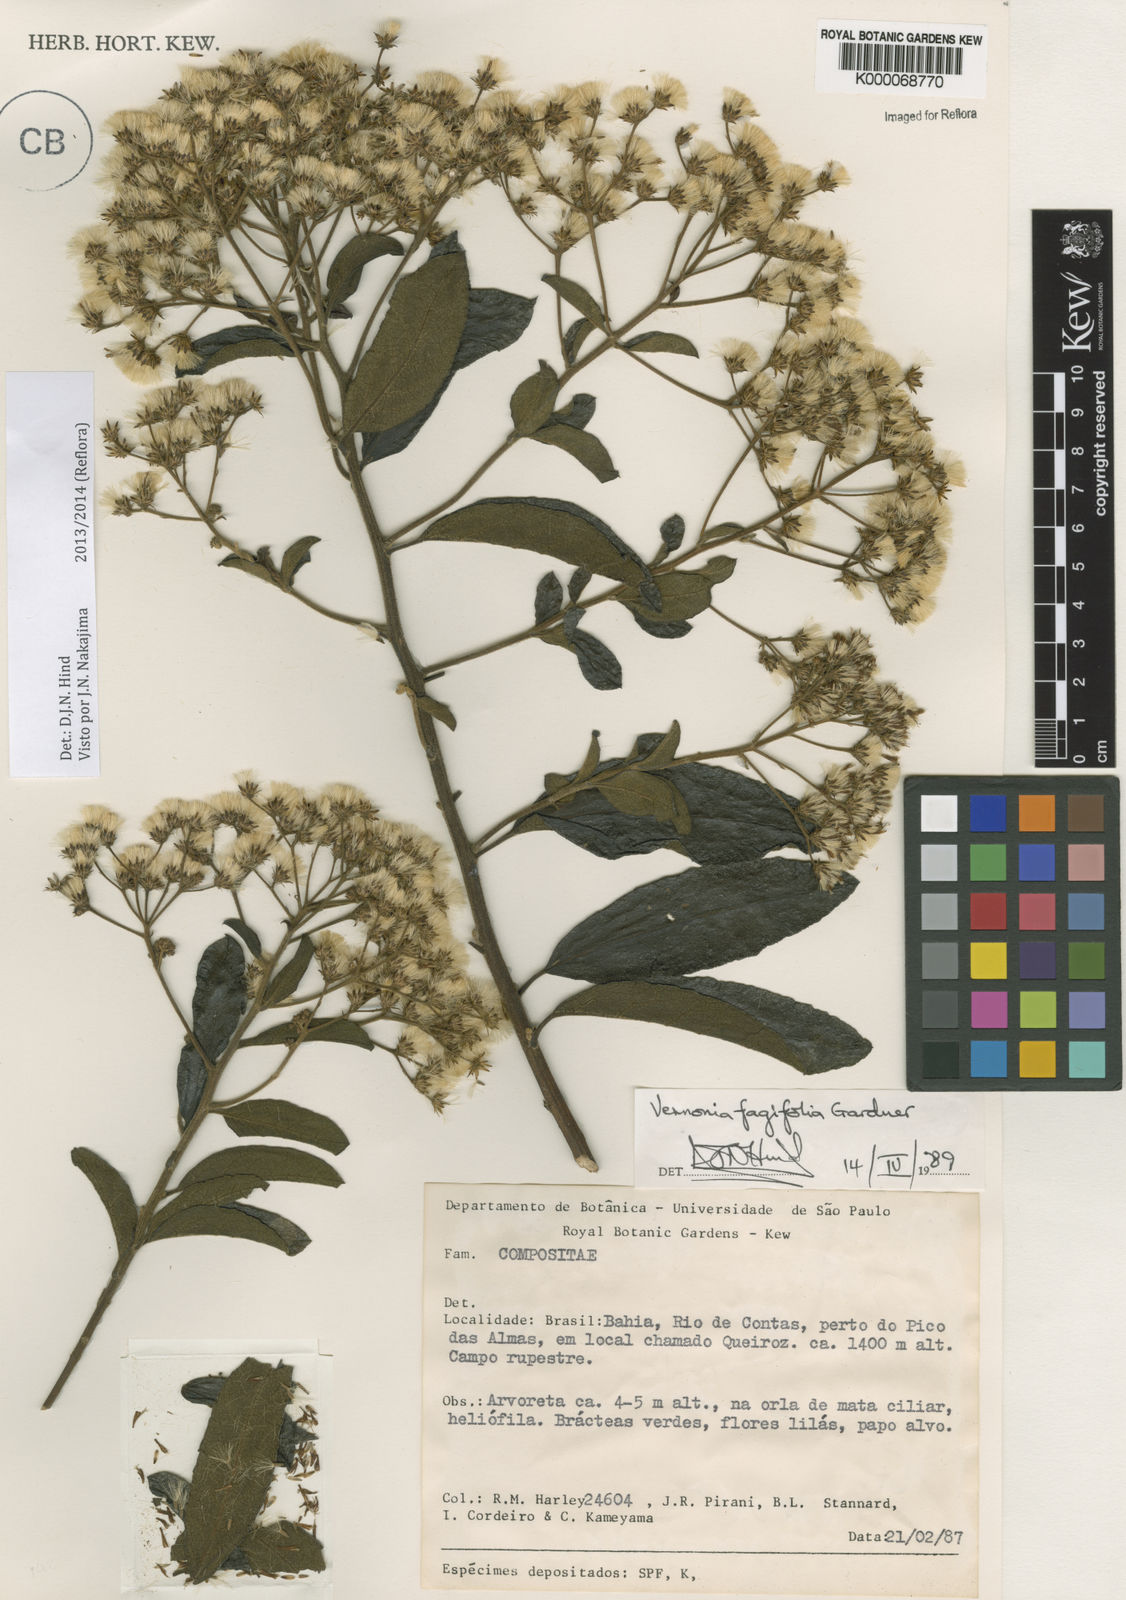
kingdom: Plantae
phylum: Tracheophyta
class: Magnoliopsida
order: Asterales
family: Asteraceae
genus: Vernonanthura
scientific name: Vernonanthura fagifolia
